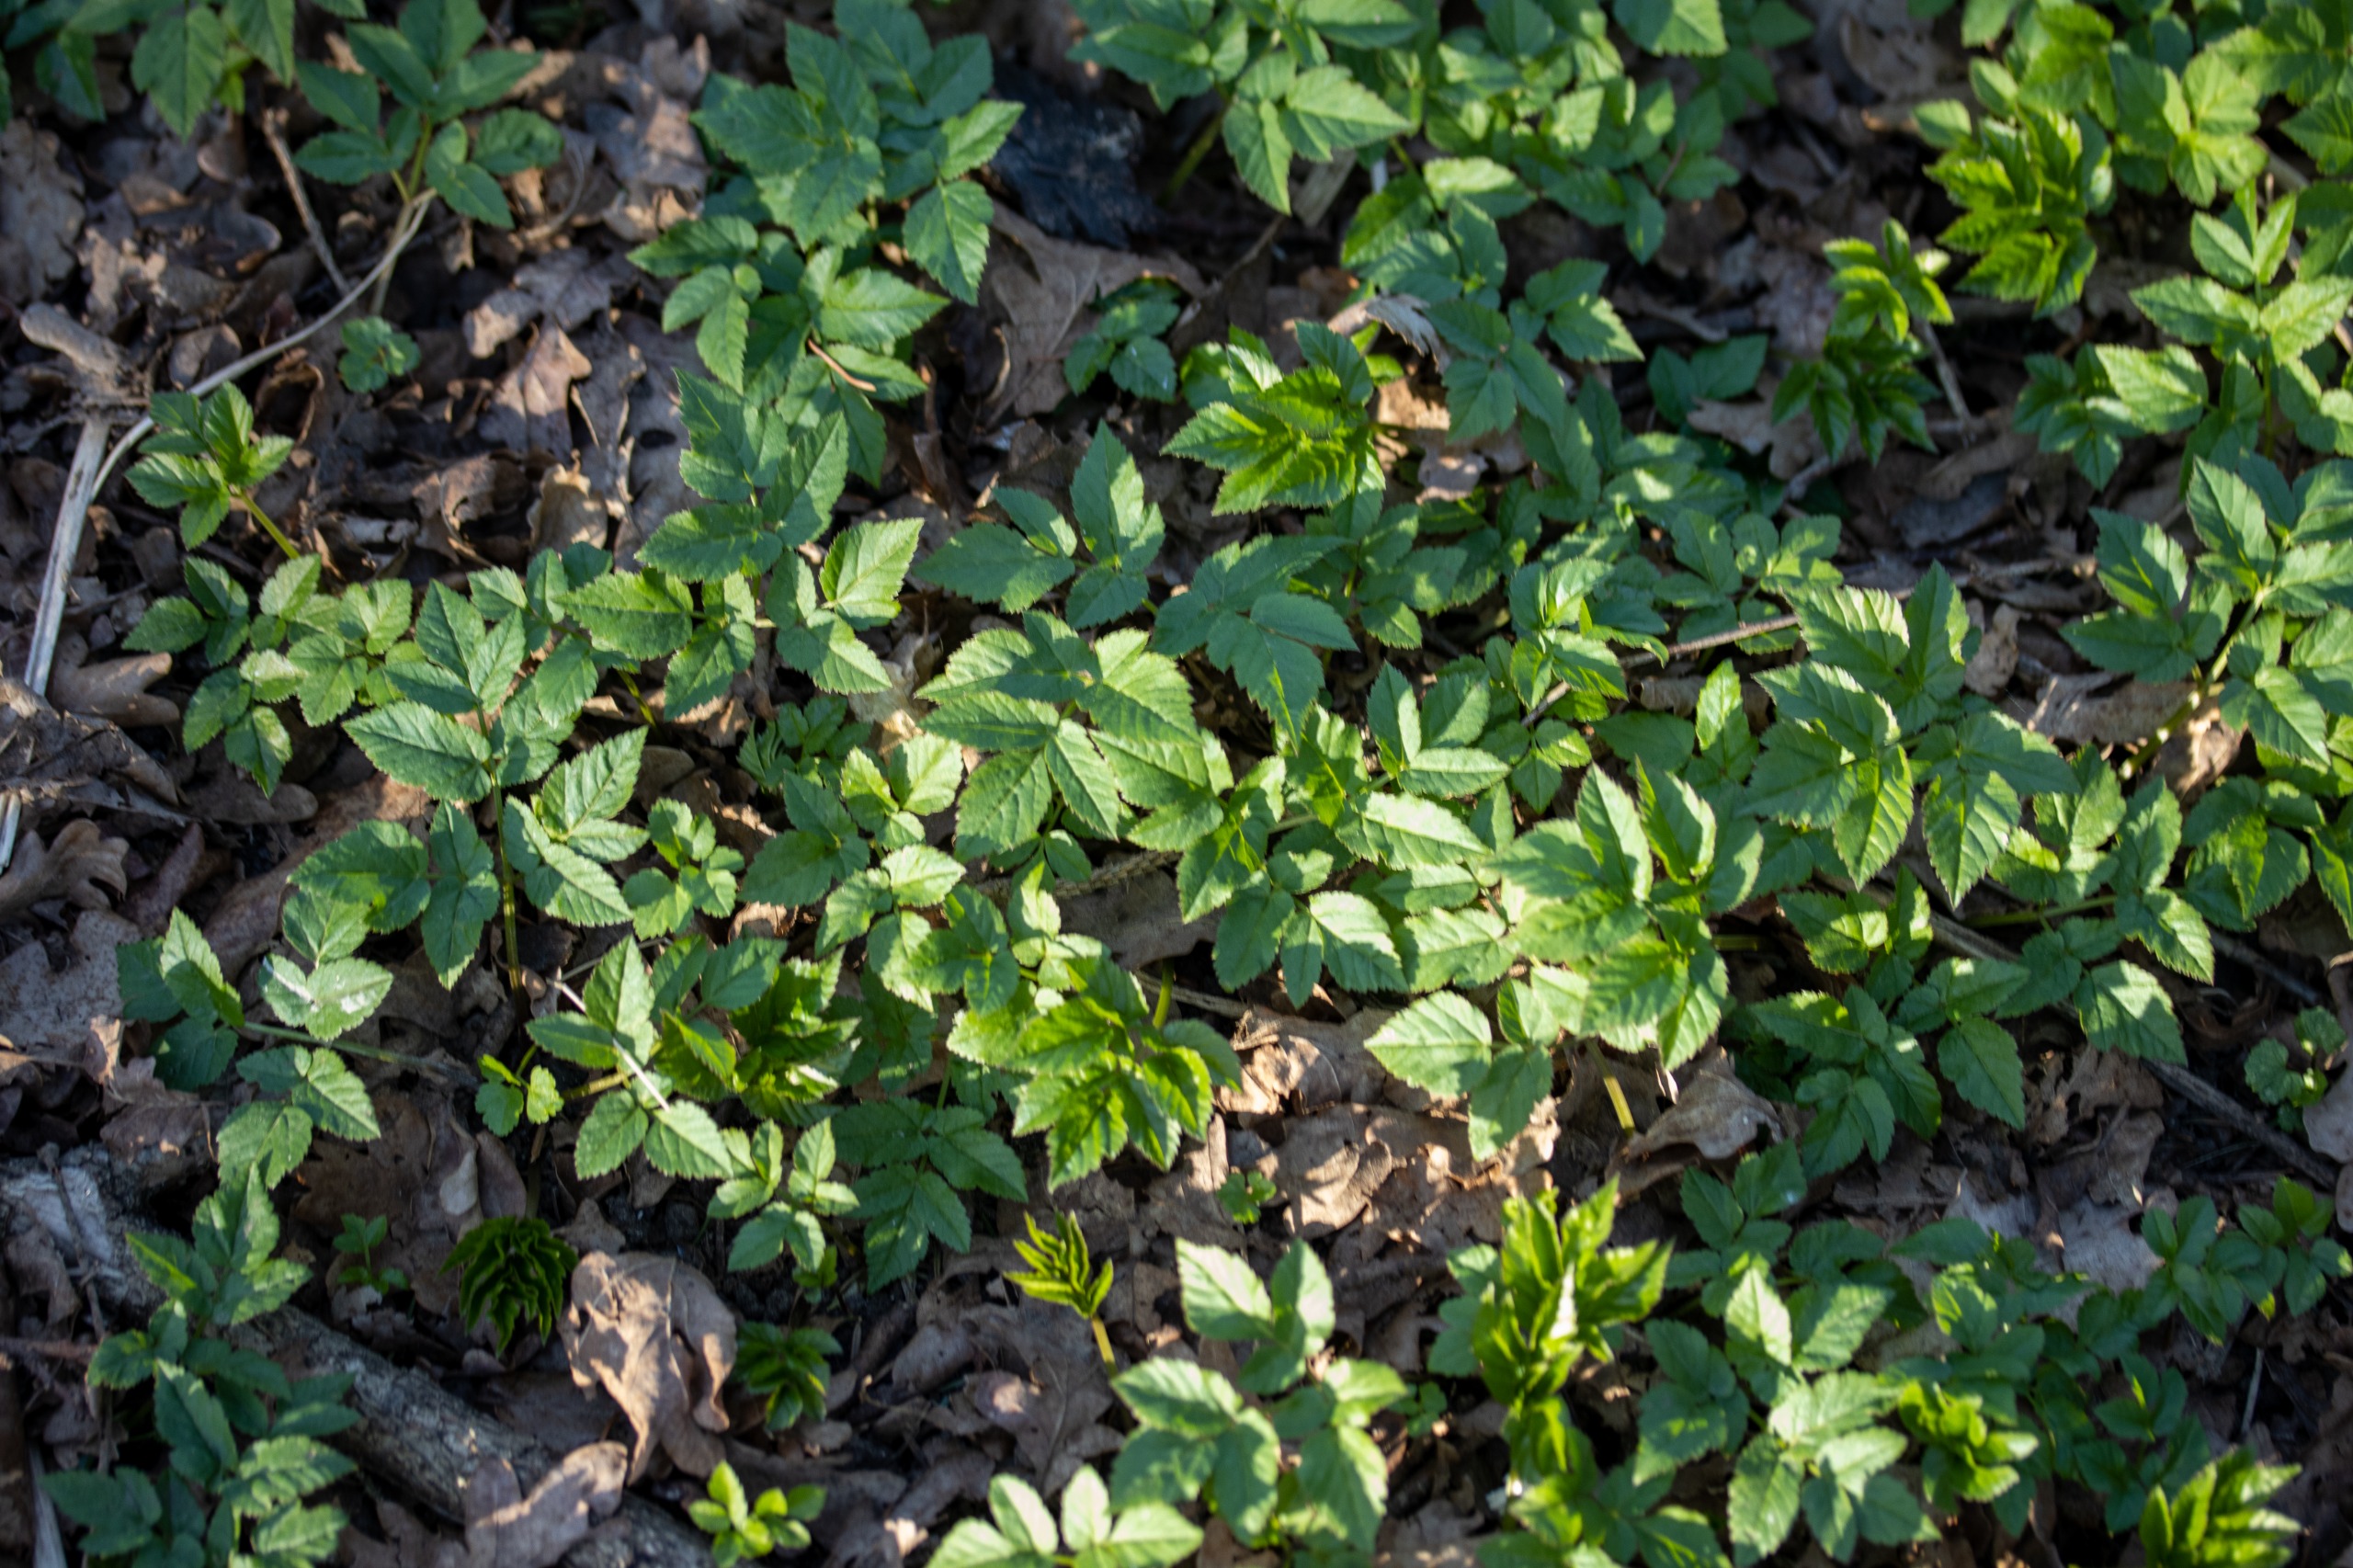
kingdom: Plantae
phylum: Tracheophyta
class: Magnoliopsida
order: Apiales
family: Apiaceae
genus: Aegopodium
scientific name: Aegopodium podagraria
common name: Skvalderkål
